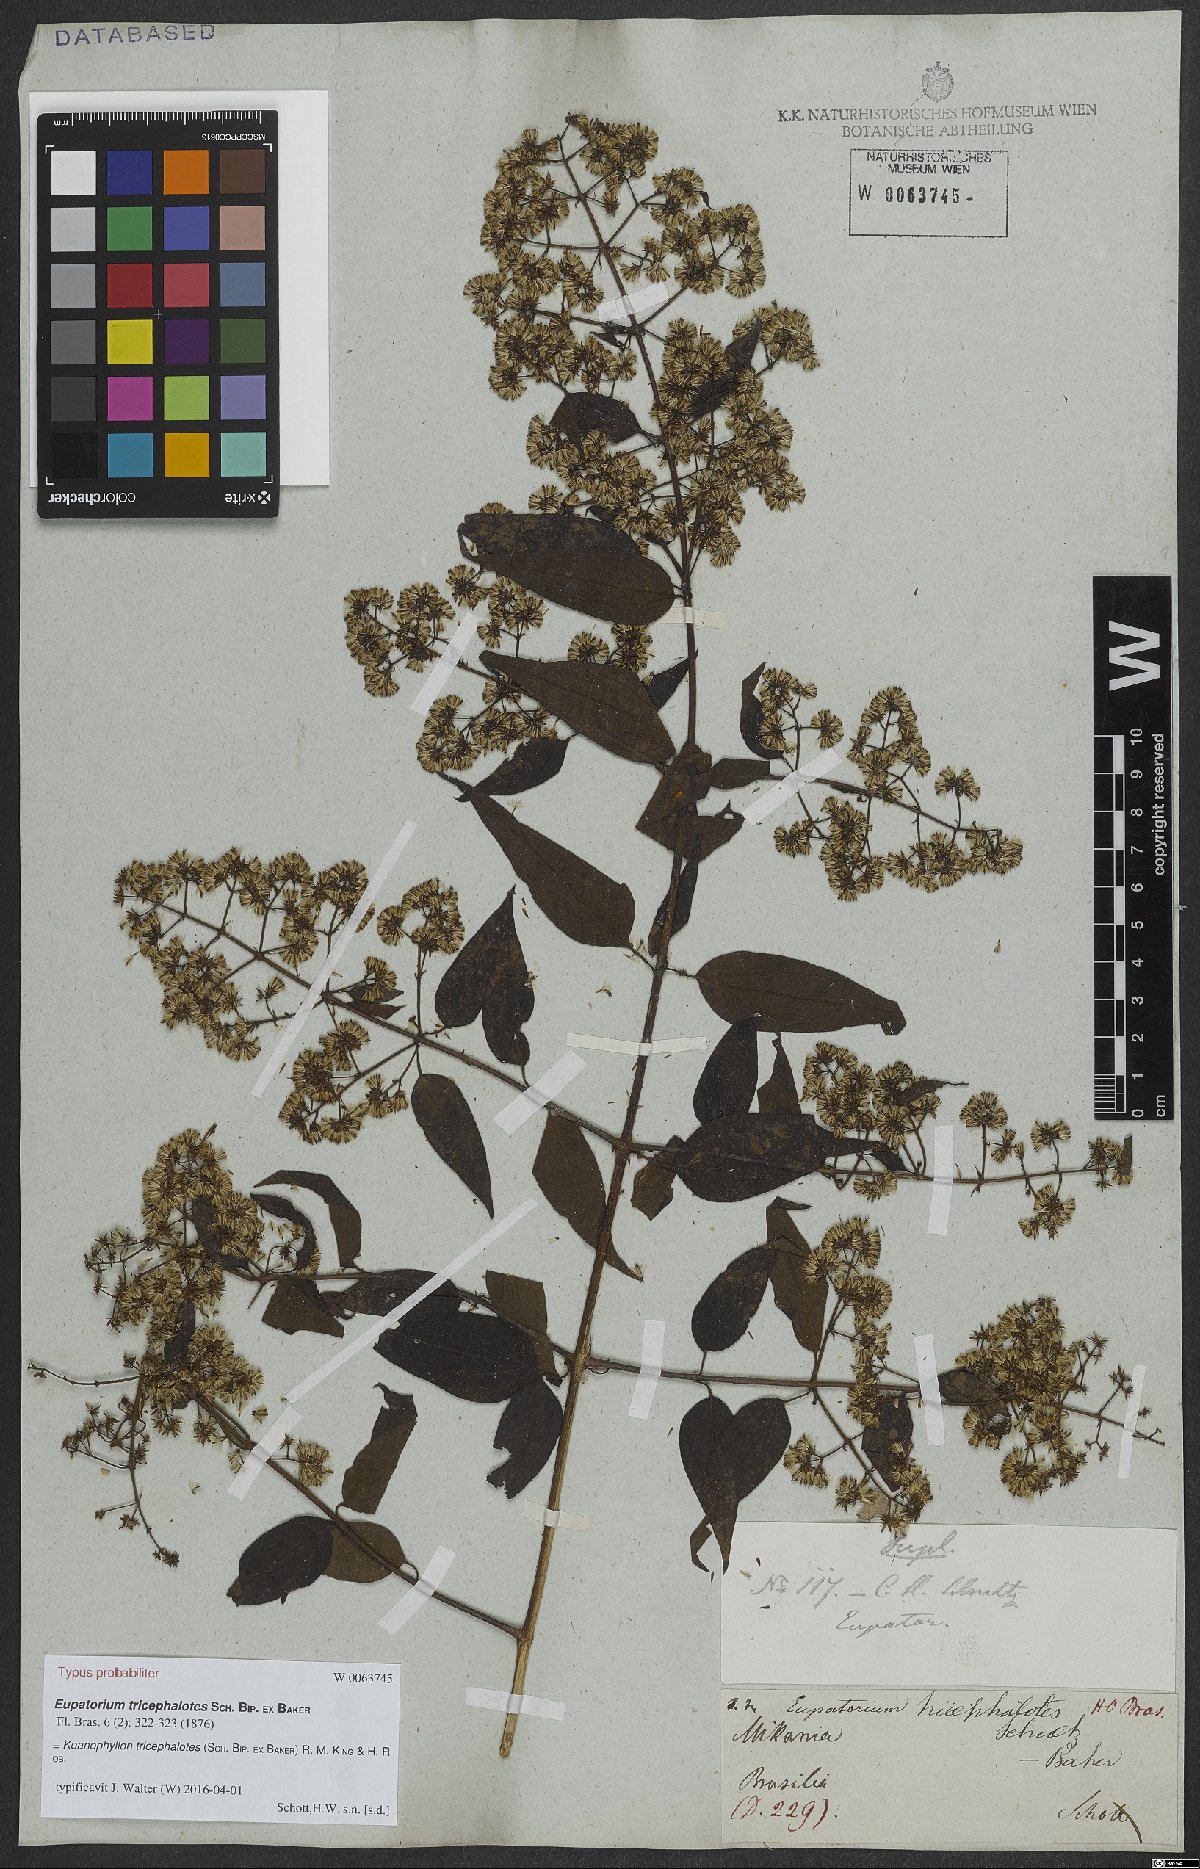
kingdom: Plantae
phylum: Tracheophyta
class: Magnoliopsida
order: Asterales
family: Asteraceae
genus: Koanophyllon
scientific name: Koanophyllon tricephalotes
